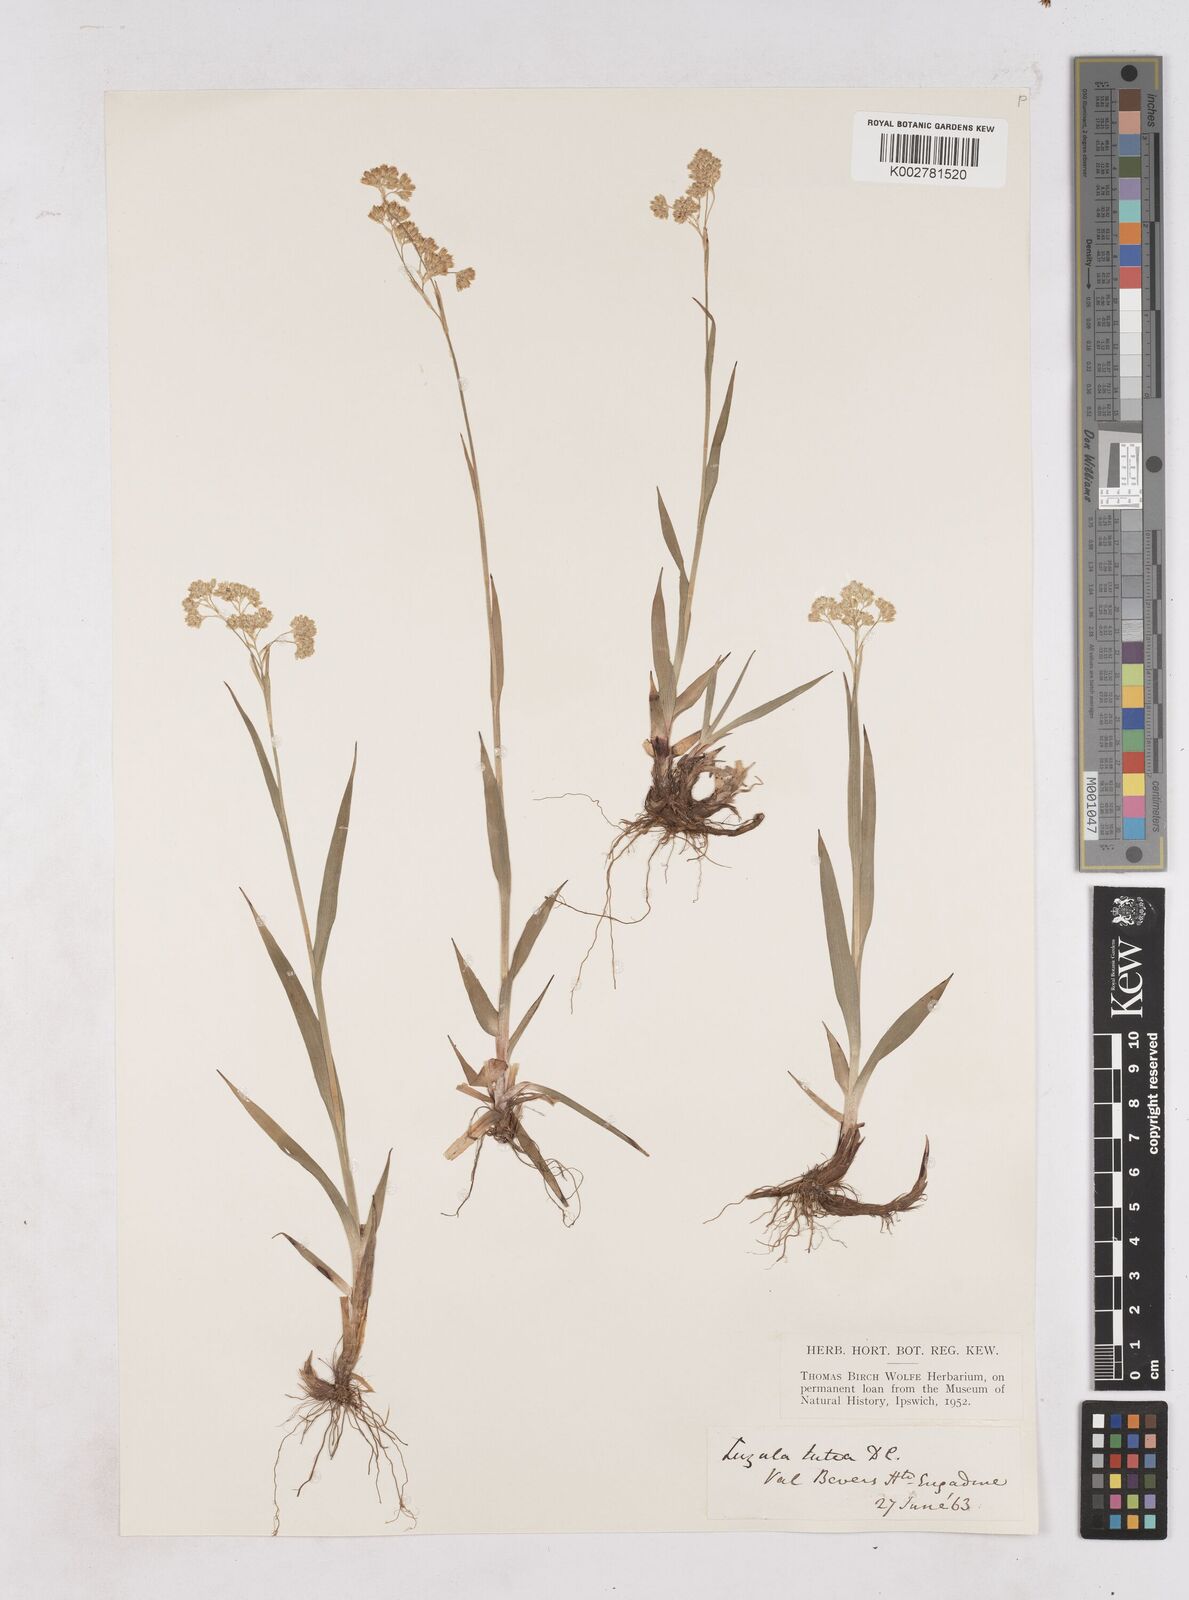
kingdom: Plantae
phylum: Tracheophyta
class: Liliopsida
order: Poales
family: Juncaceae
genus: Luzula
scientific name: Luzula lutea
